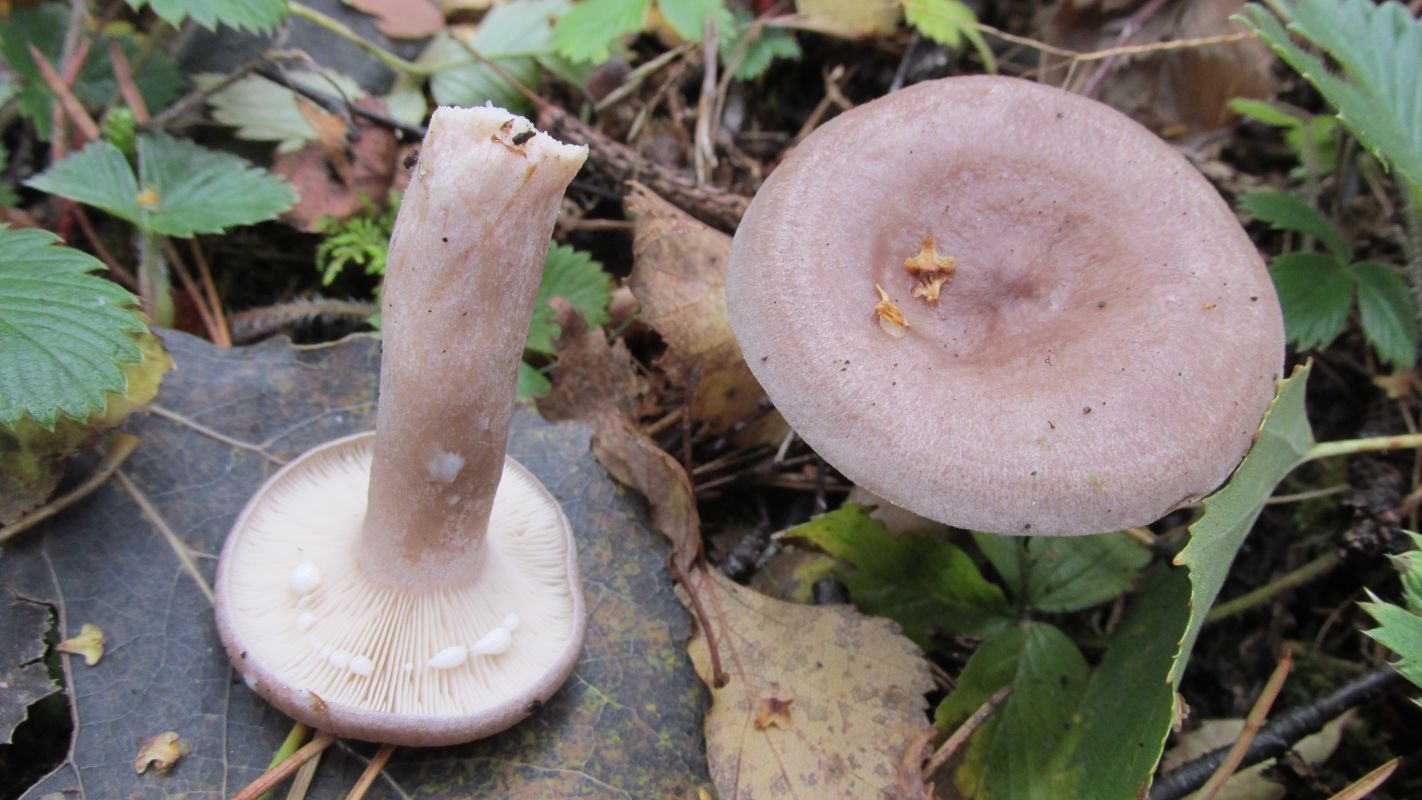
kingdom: Fungi
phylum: Basidiomycota
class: Agaricomycetes
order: Russulales
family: Russulaceae
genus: Lactarius
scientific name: Lactarius vietus
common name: Grey milk-cap
